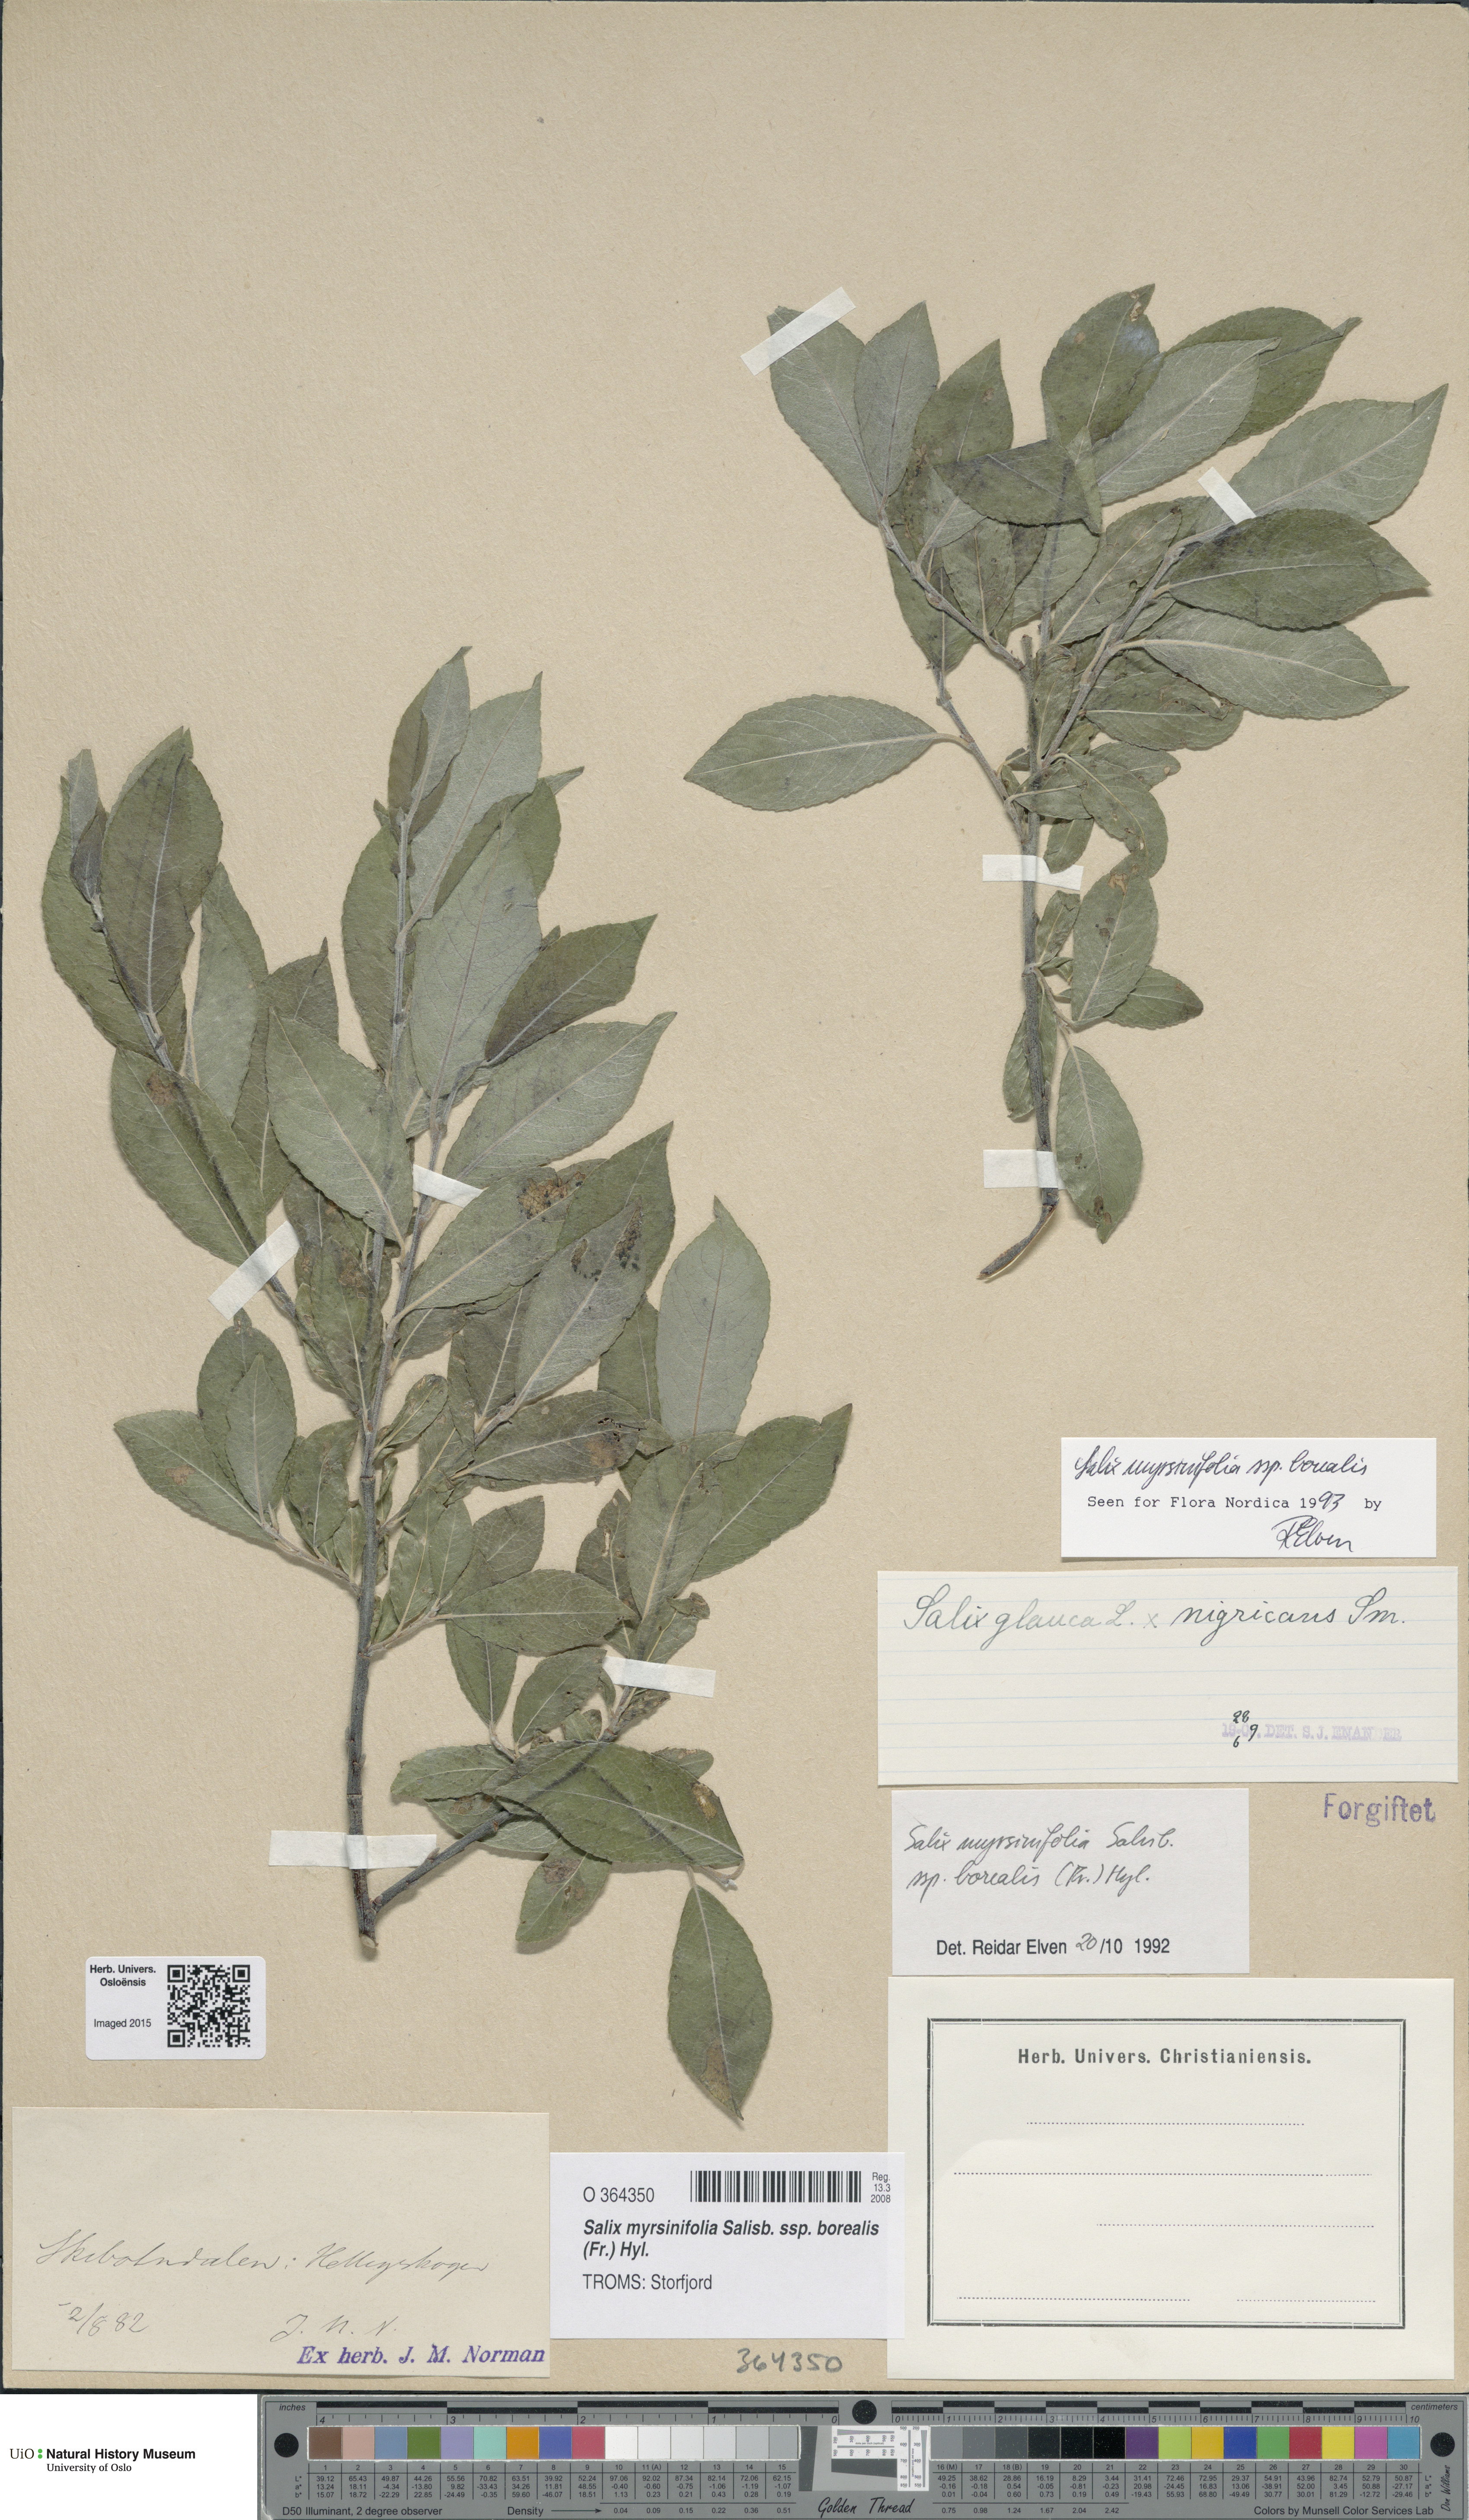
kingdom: Plantae
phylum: Tracheophyta
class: Magnoliopsida
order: Malpighiales
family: Salicaceae
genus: Salix
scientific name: Salix myrsinifolia
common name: Dark-leaved willow
